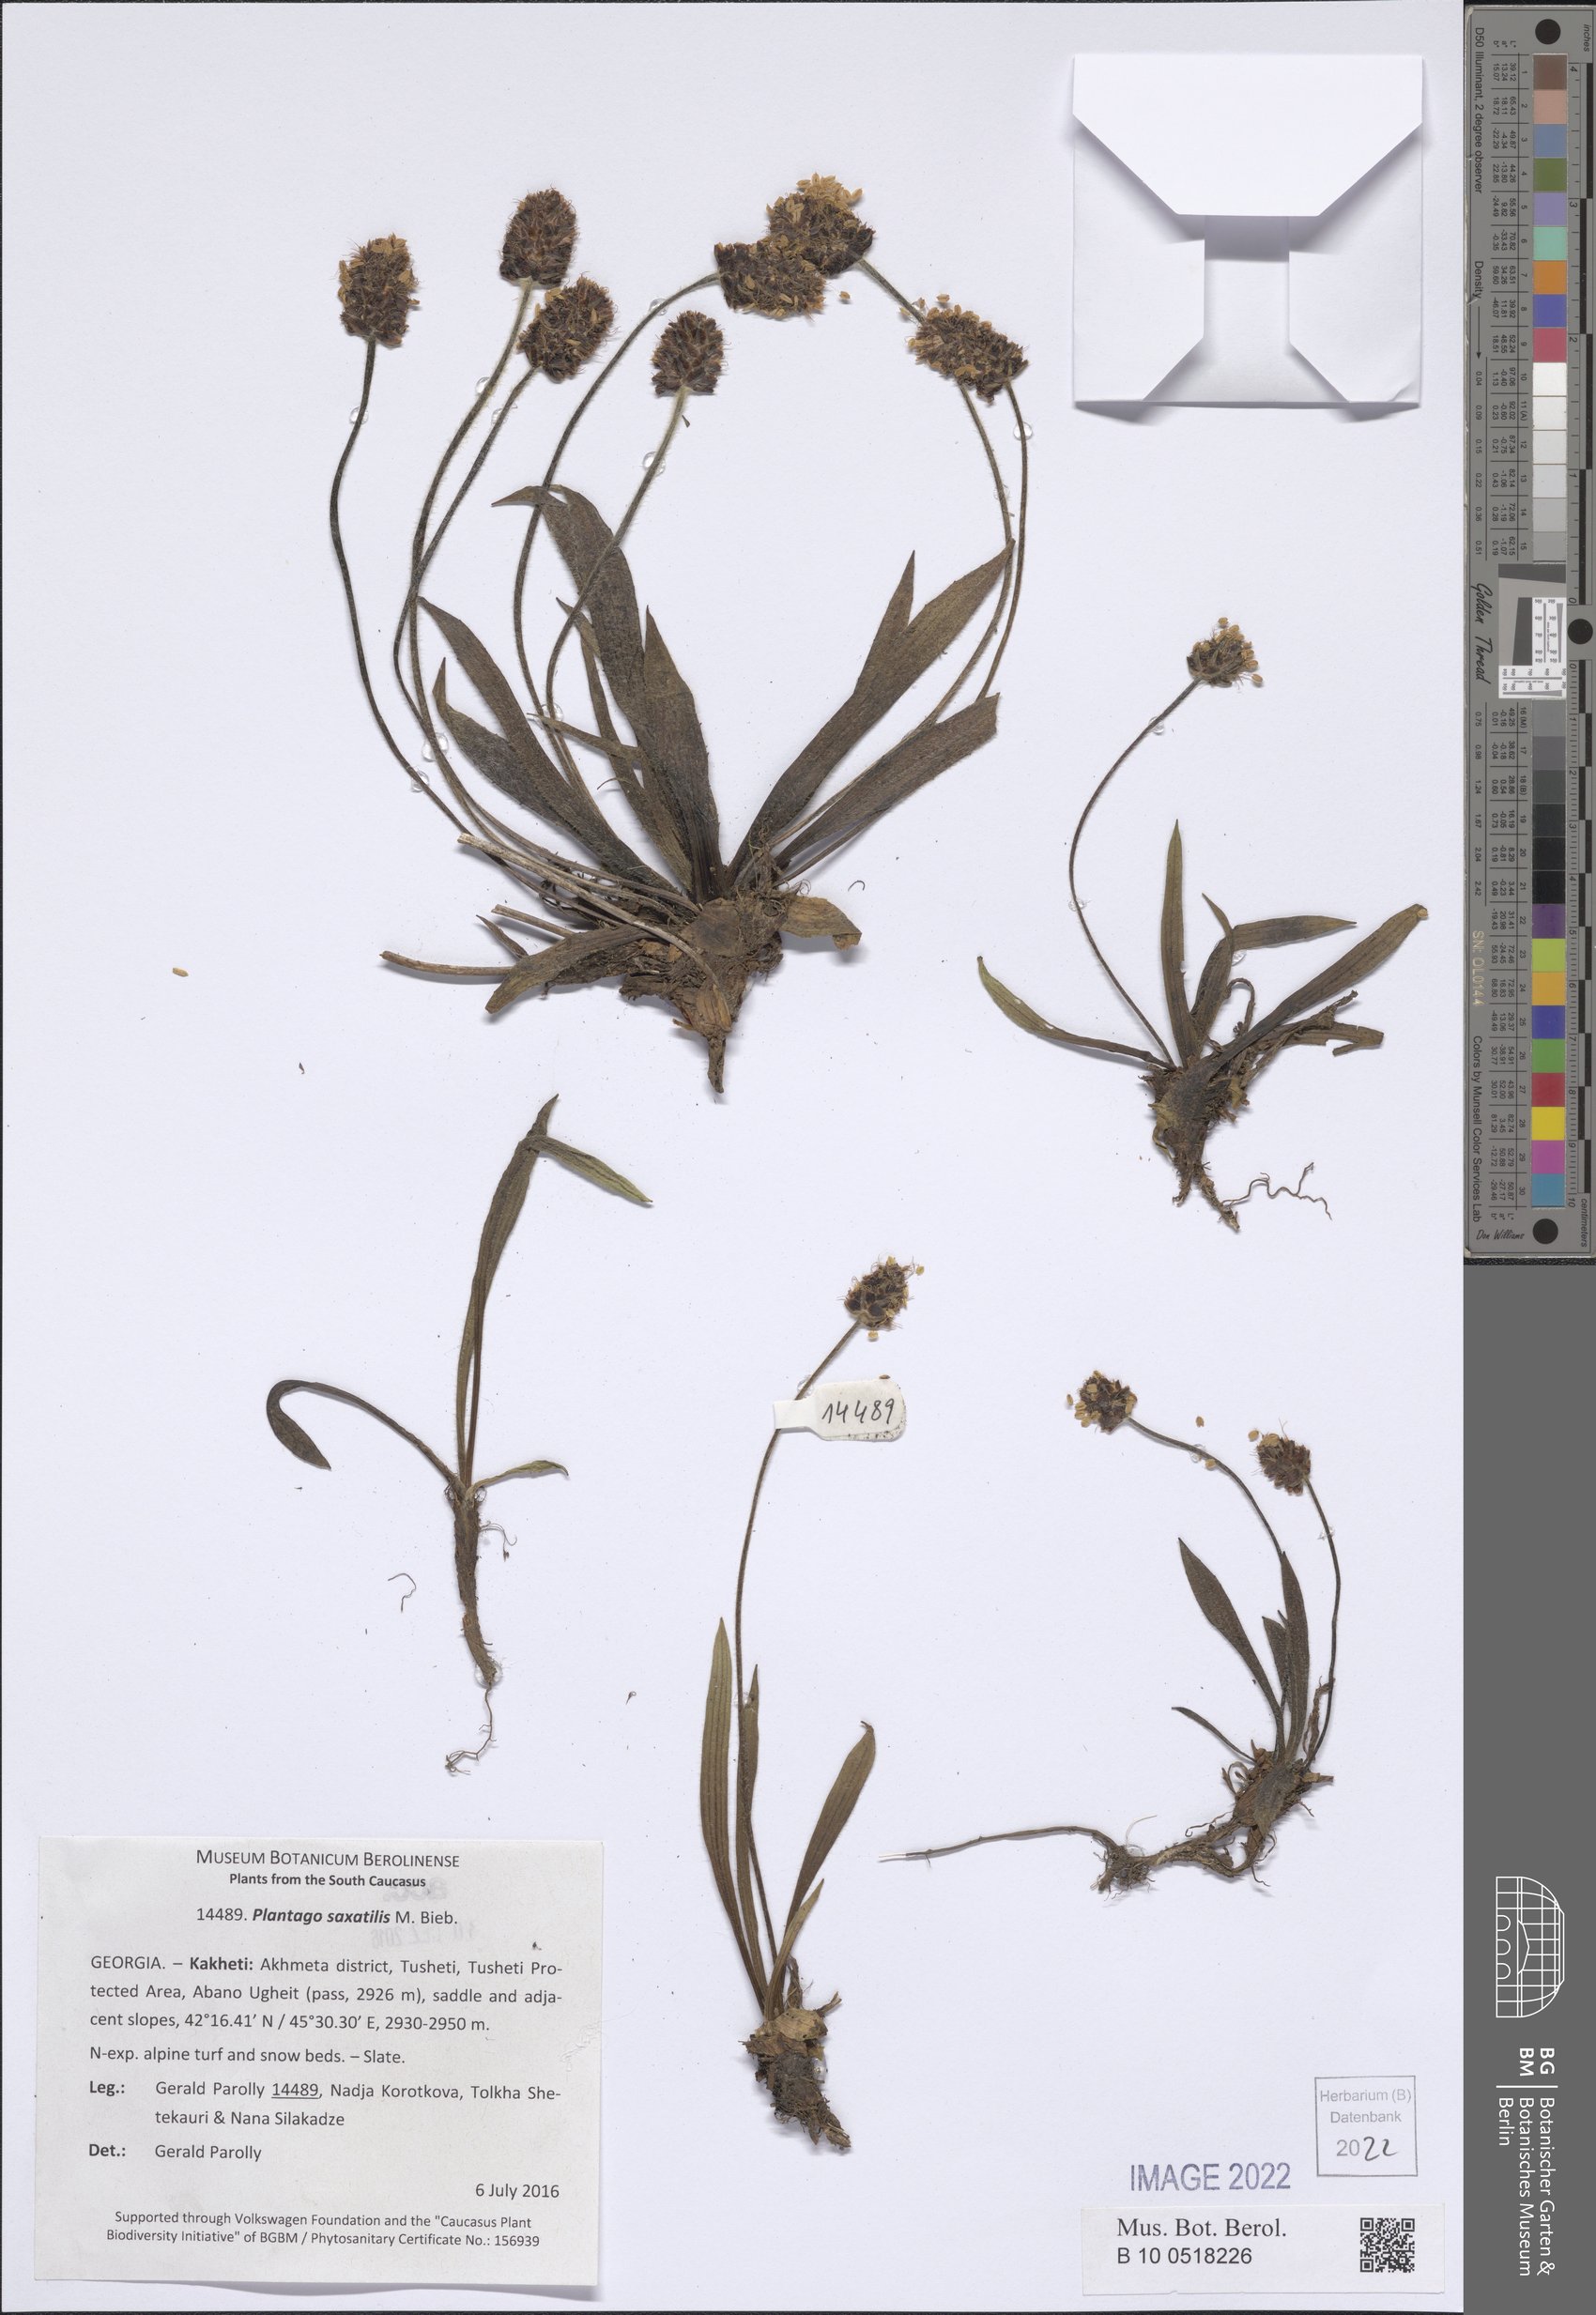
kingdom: Plantae
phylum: Tracheophyta
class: Magnoliopsida
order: Lamiales
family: Plantaginaceae
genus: Plantago
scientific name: Plantago atrata
